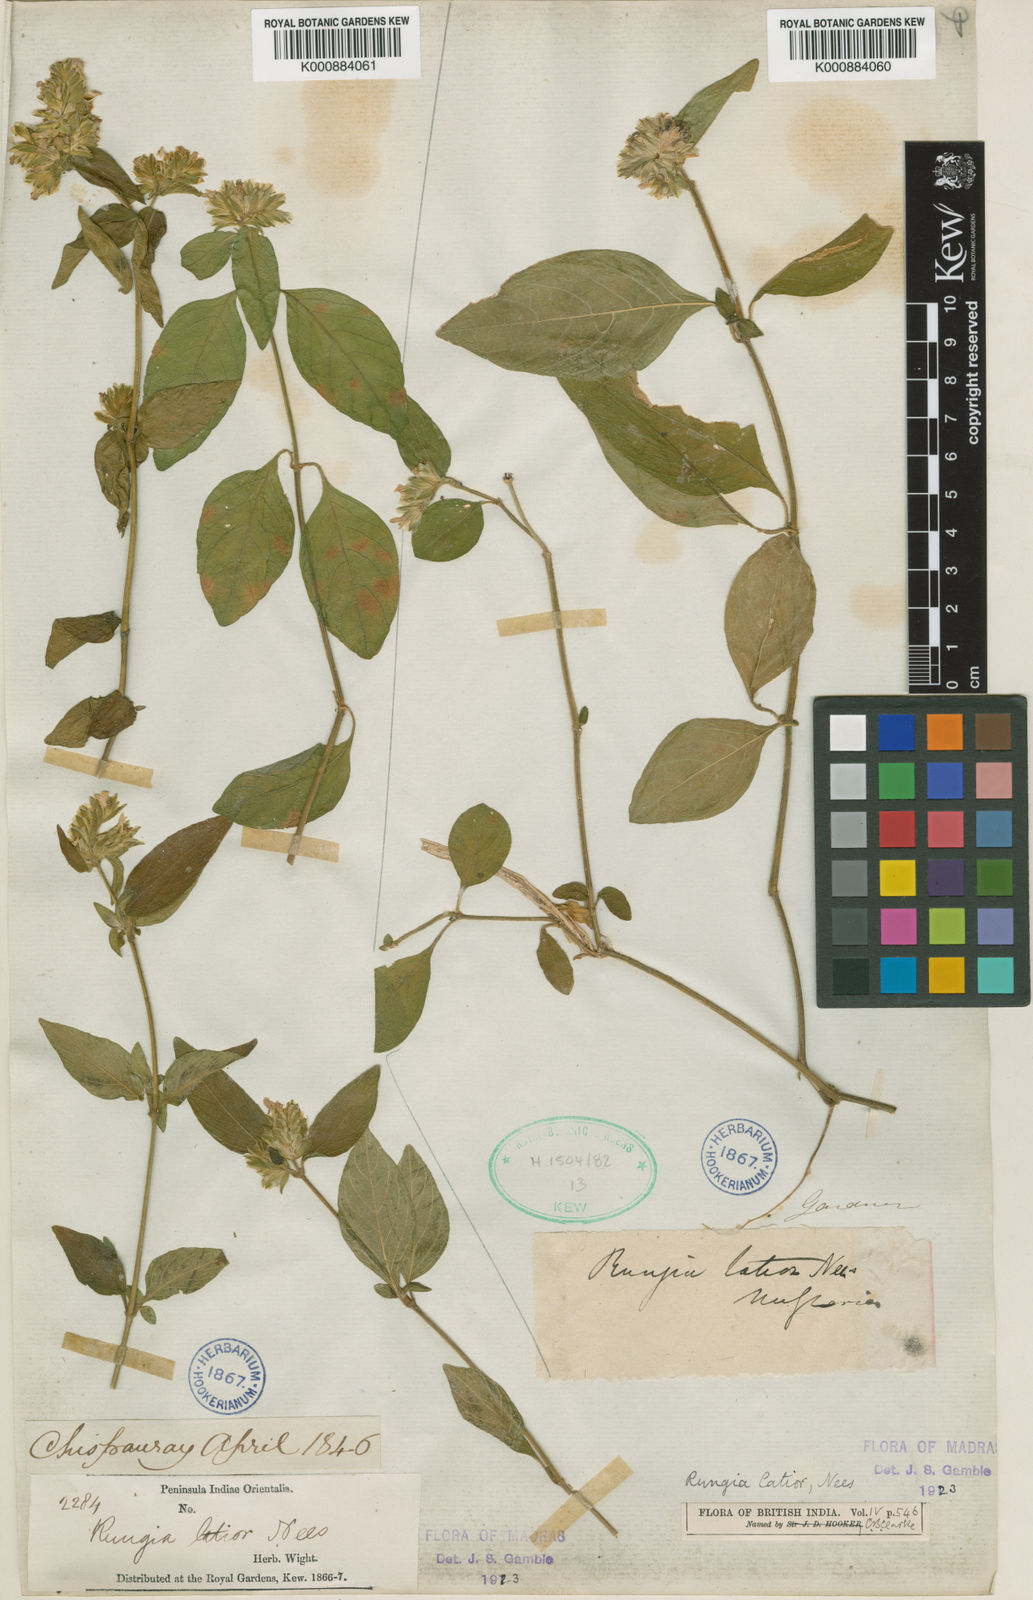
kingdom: Plantae
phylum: Tracheophyta
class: Magnoliopsida
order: Lamiales
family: Acanthaceae
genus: Justicia
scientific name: Justicia
